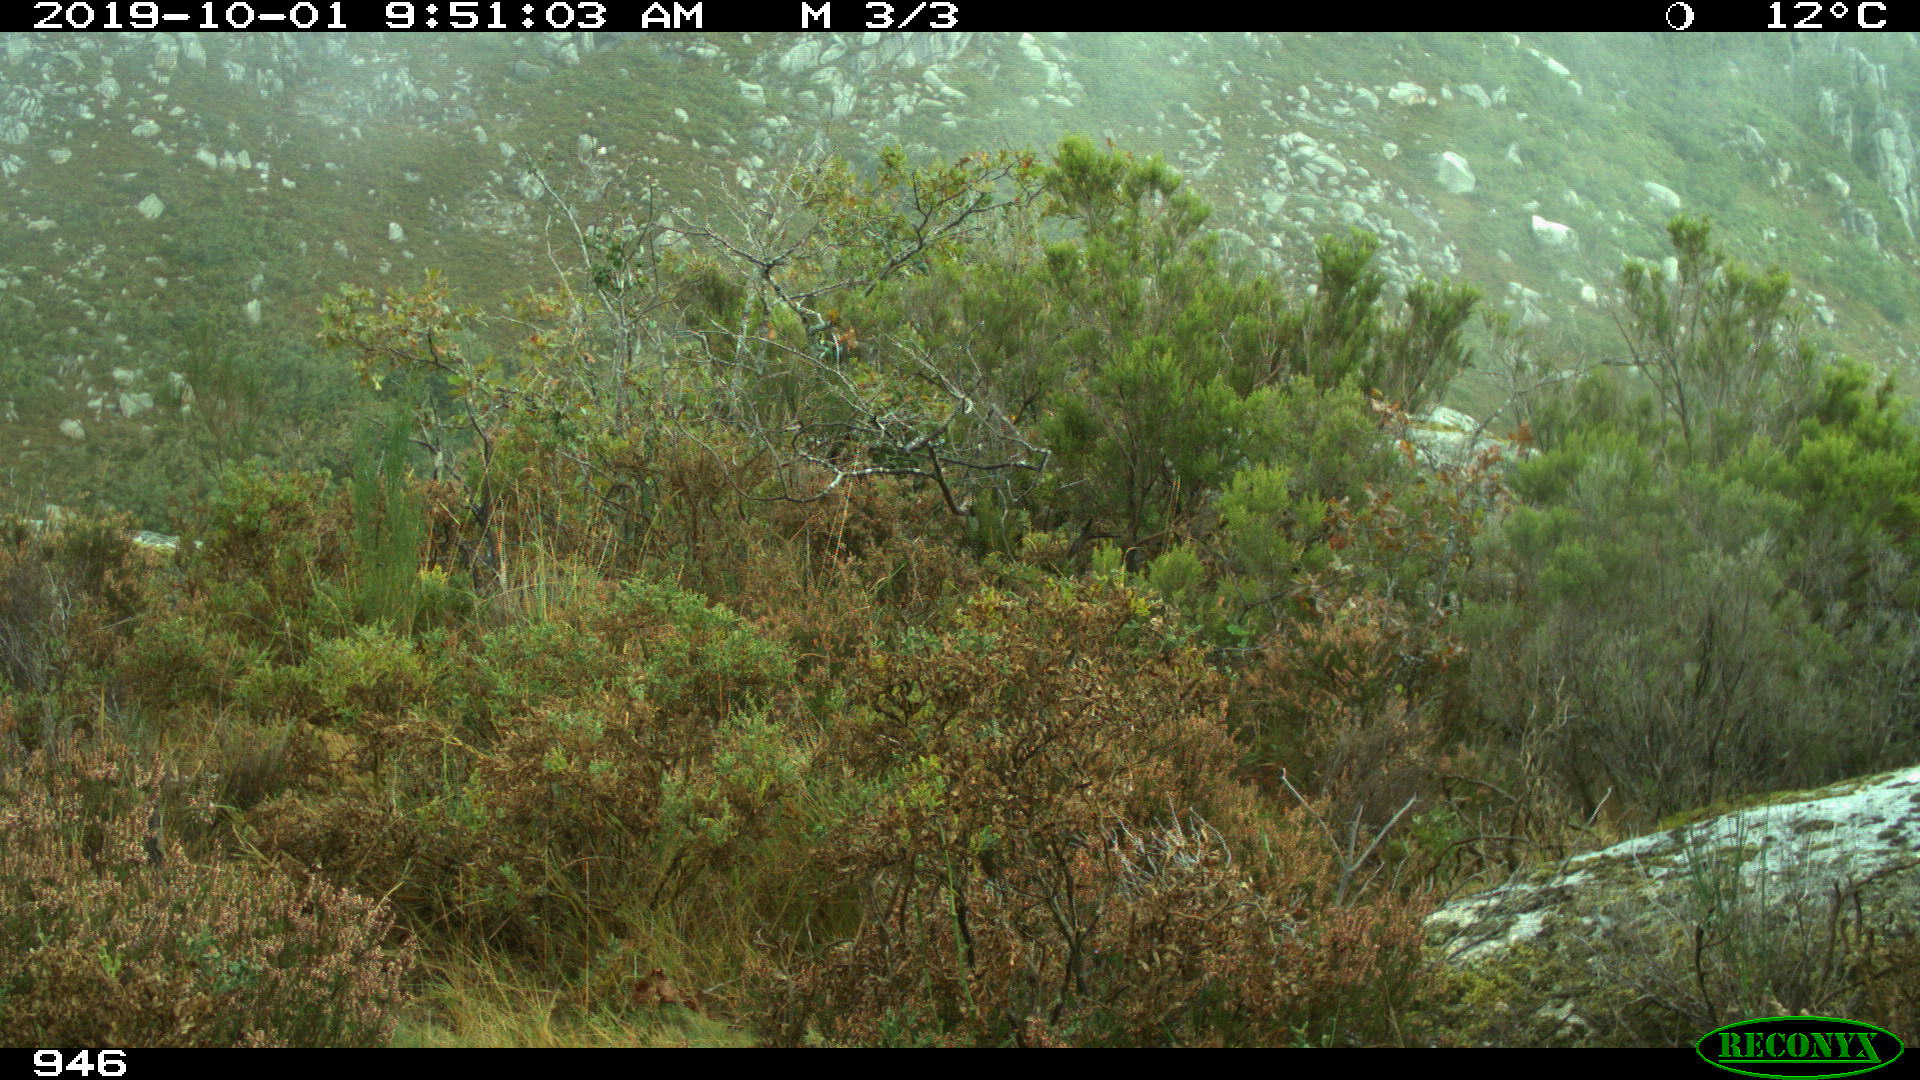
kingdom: Animalia
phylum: Chordata
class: Mammalia
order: Artiodactyla
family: Bovidae
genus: Bos
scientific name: Bos taurus
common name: Domesticated cattle
